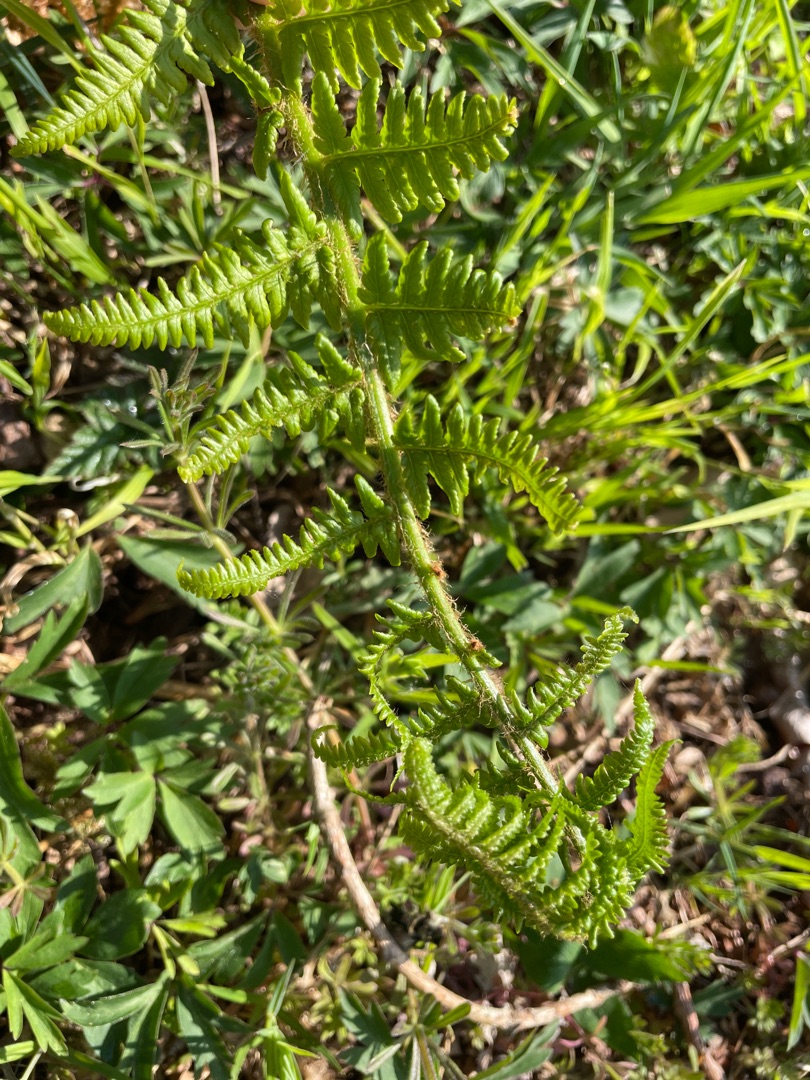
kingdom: Plantae
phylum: Tracheophyta
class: Polypodiopsida
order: Polypodiales
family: Dryopteridaceae
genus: Dryopteris
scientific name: Dryopteris filix-mas
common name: Almindelig mangeløv
